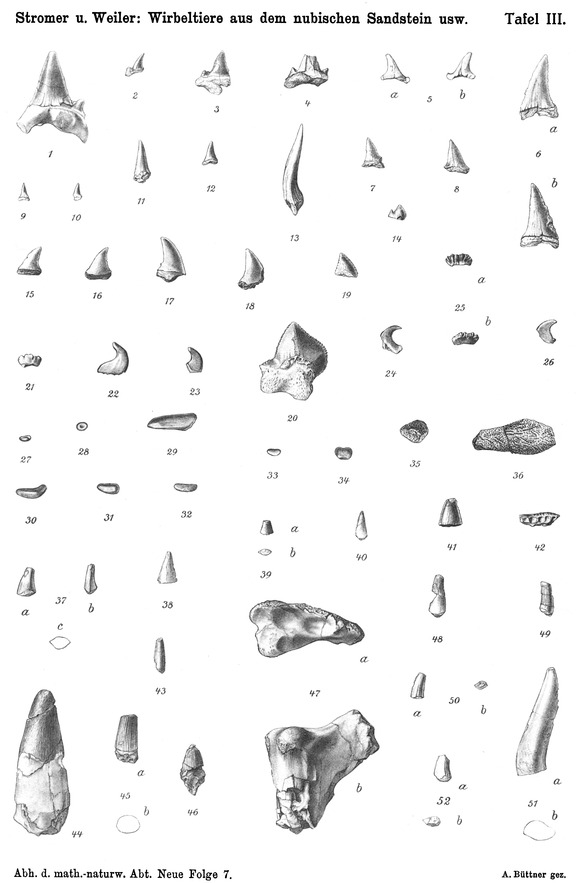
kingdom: Animalia
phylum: Chordata
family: Pycnodontidae
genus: Anomoeodus
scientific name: Anomoeodus
